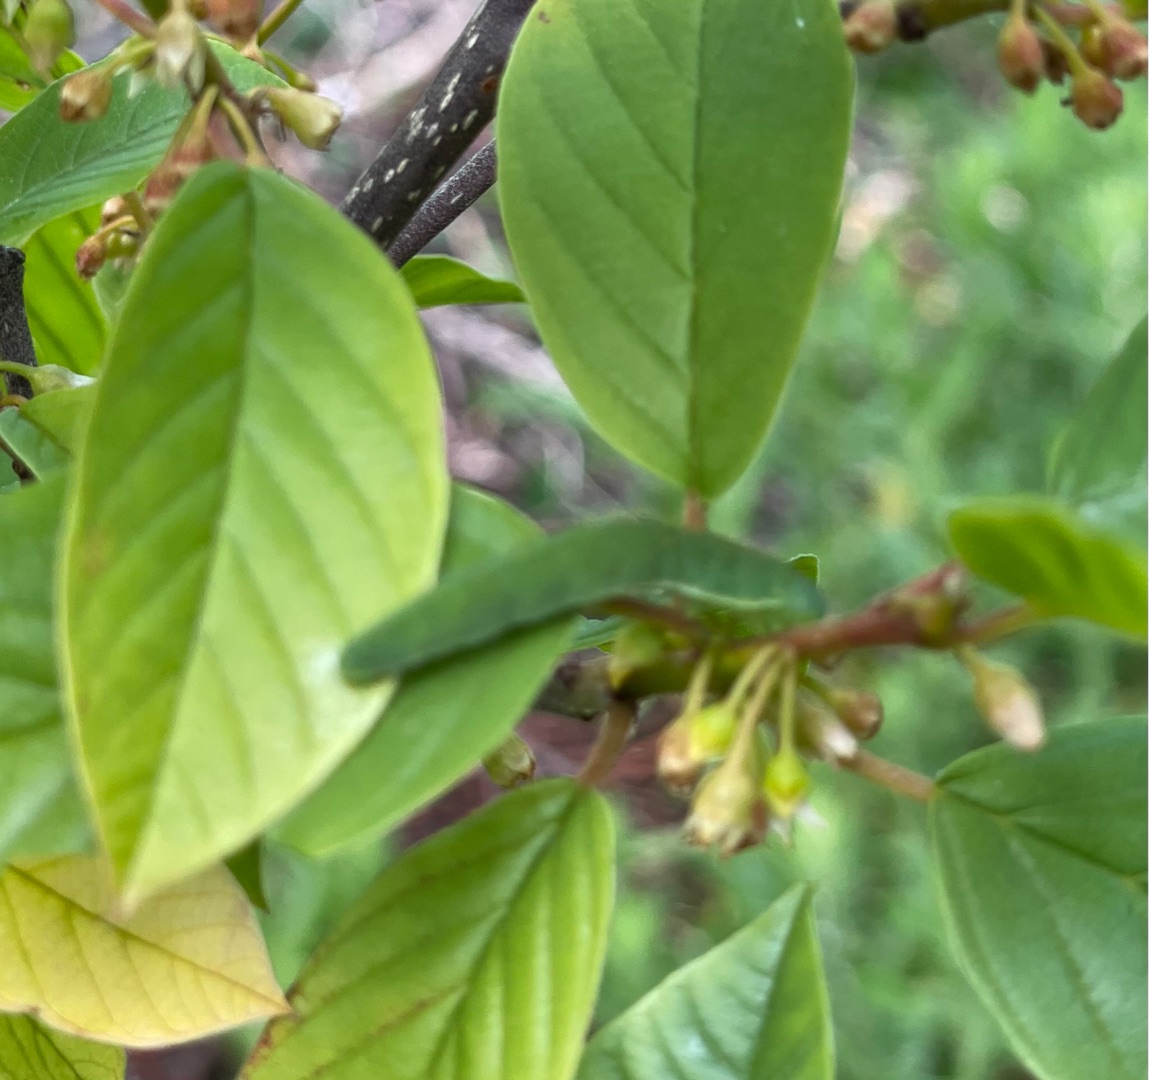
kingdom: Animalia
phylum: Arthropoda
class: Insecta
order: Lepidoptera
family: Pieridae
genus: Gonepteryx
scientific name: Gonepteryx rhamni
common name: Citronsommerfugl
